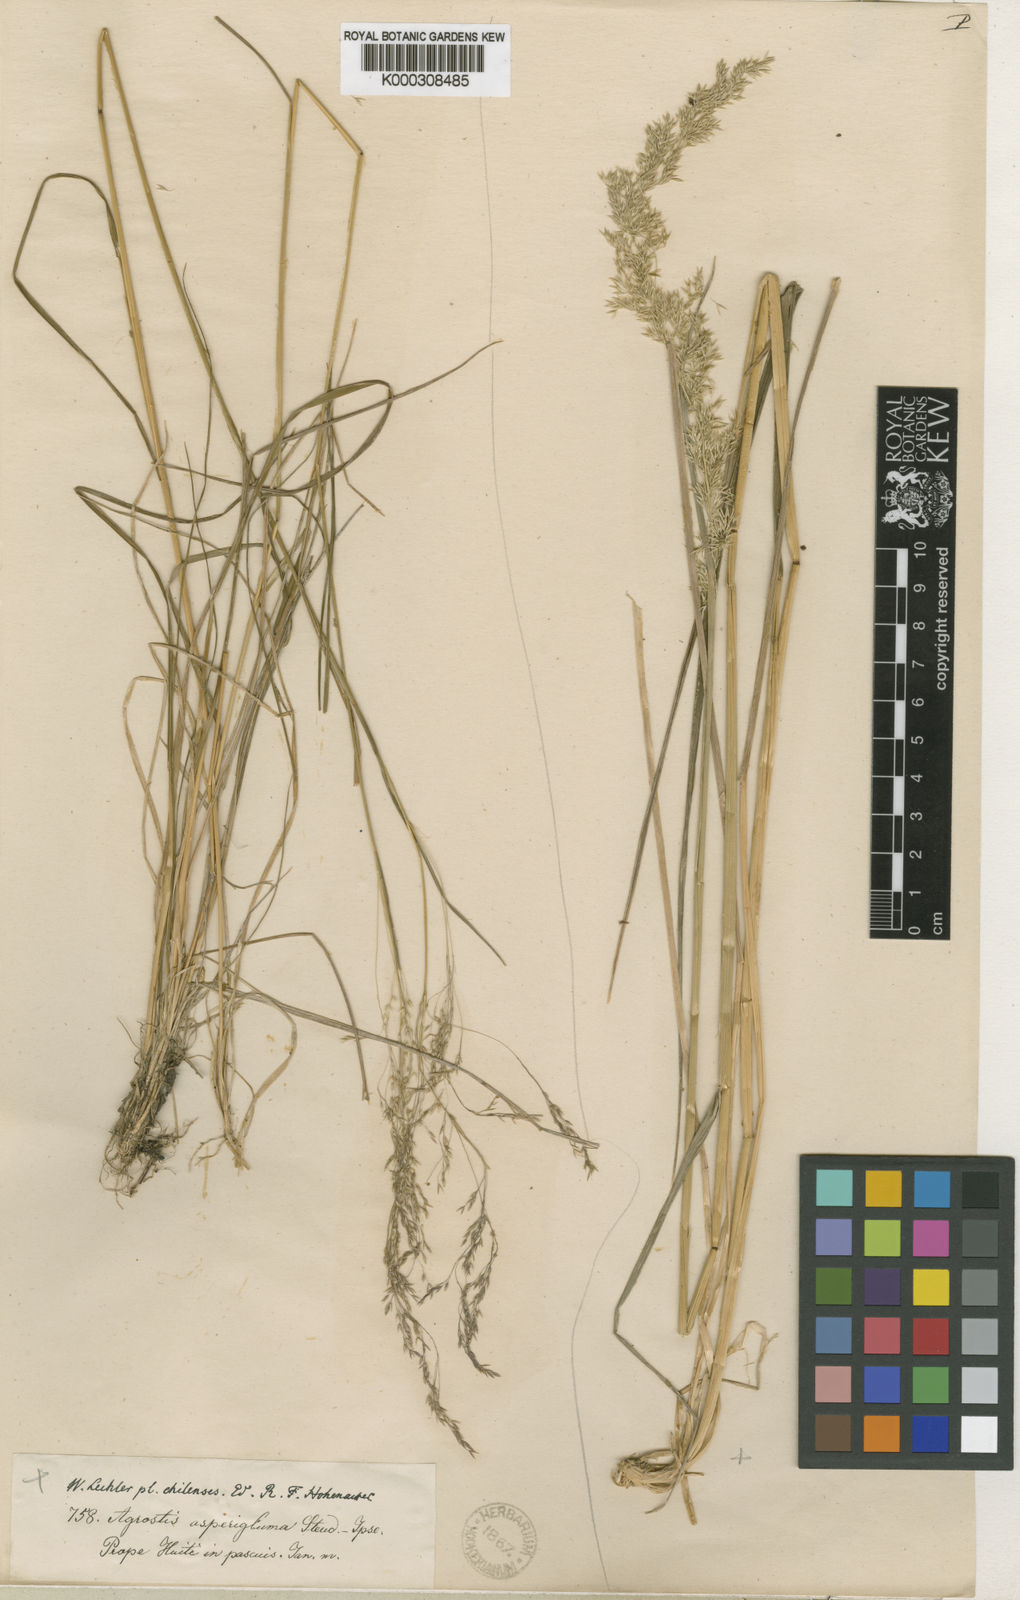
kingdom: Plantae
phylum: Tracheophyta
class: Liliopsida
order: Poales
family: Poaceae
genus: Polypogon
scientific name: Polypogon exasperatus
